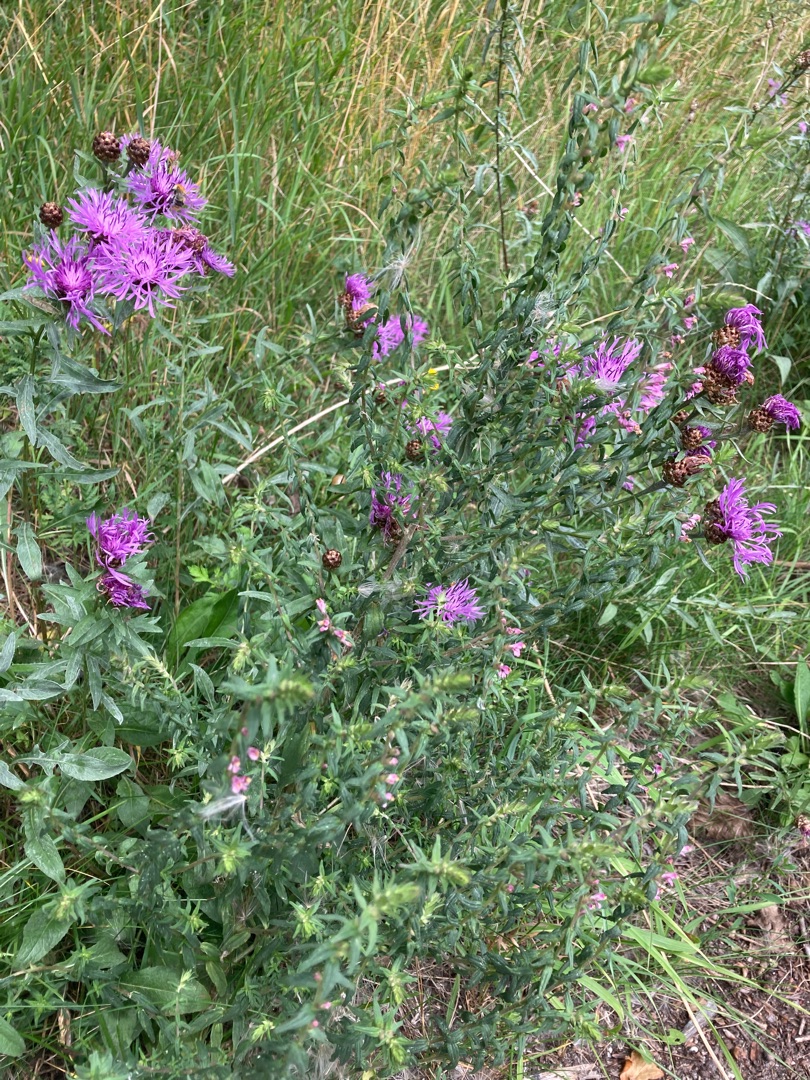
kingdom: Plantae
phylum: Tracheophyta
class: Magnoliopsida
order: Lamiales
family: Orobanchaceae
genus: Odontites
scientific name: Odontites vulgaris
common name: Høst-rødtop
